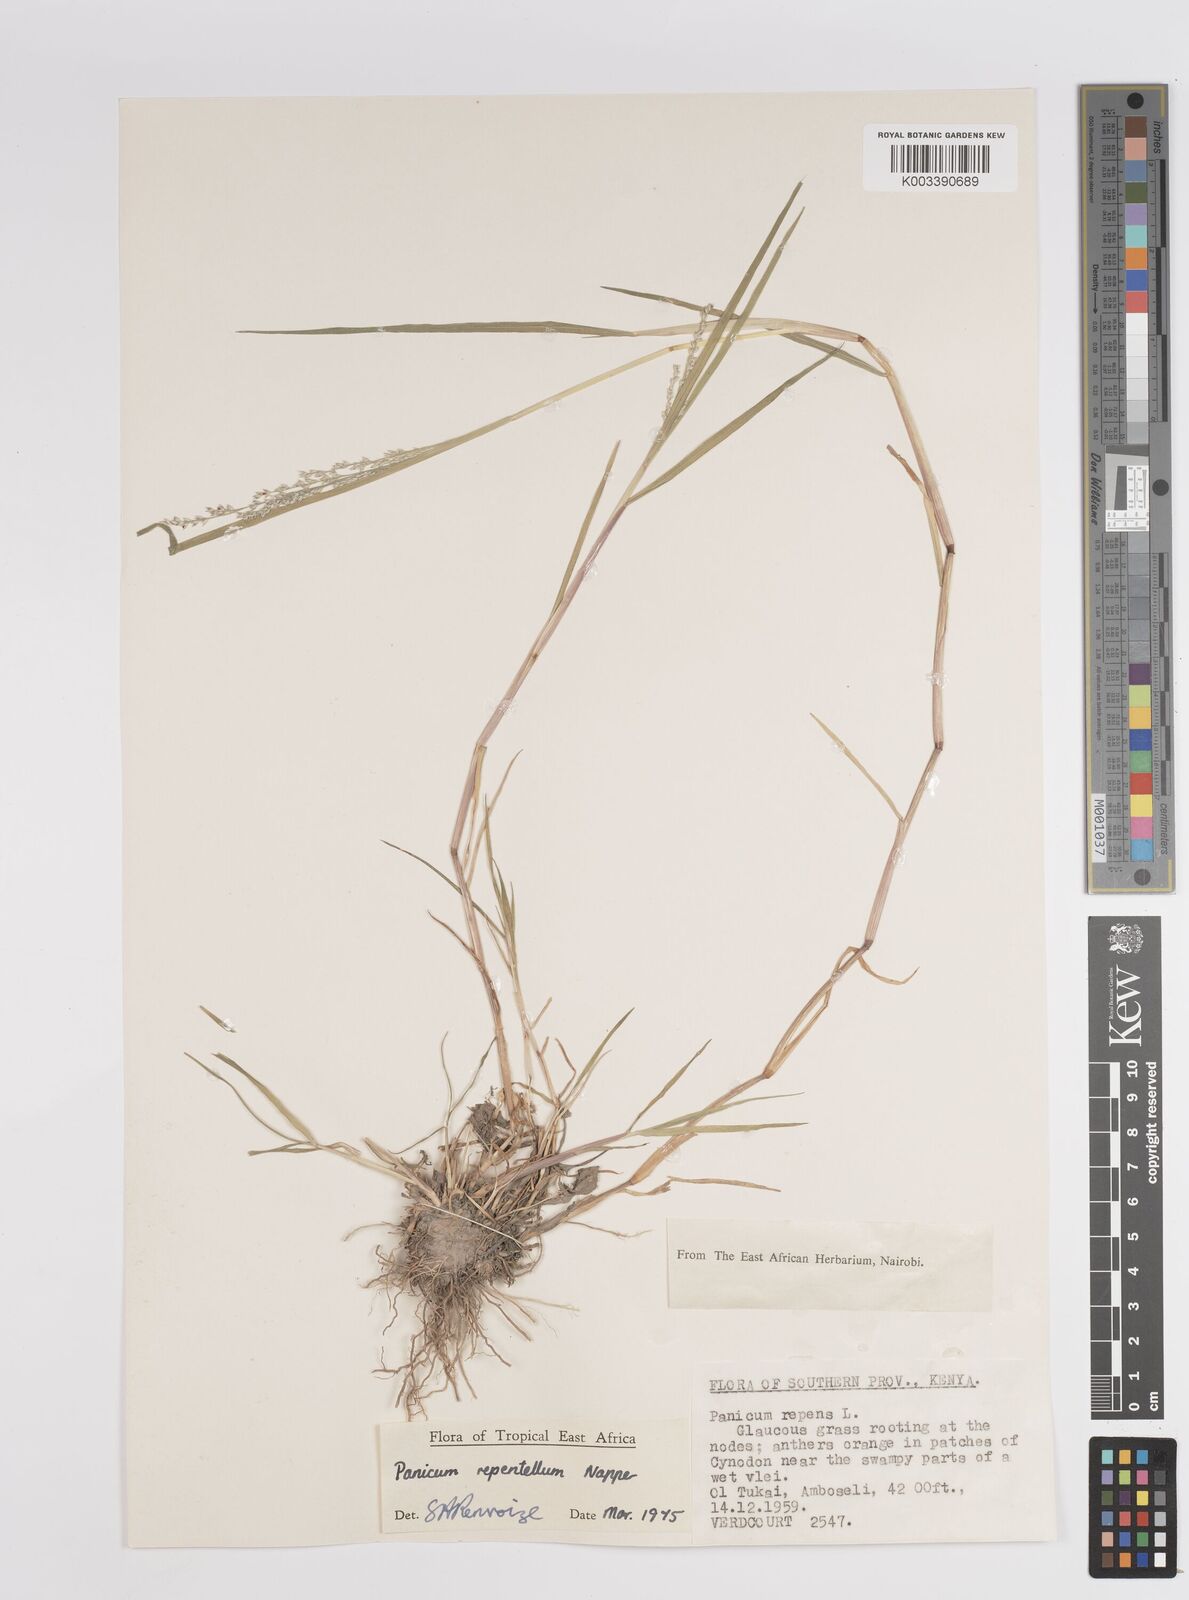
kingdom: Plantae
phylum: Tracheophyta
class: Liliopsida
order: Poales
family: Poaceae
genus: Panicum
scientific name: Panicum hygrocharis
